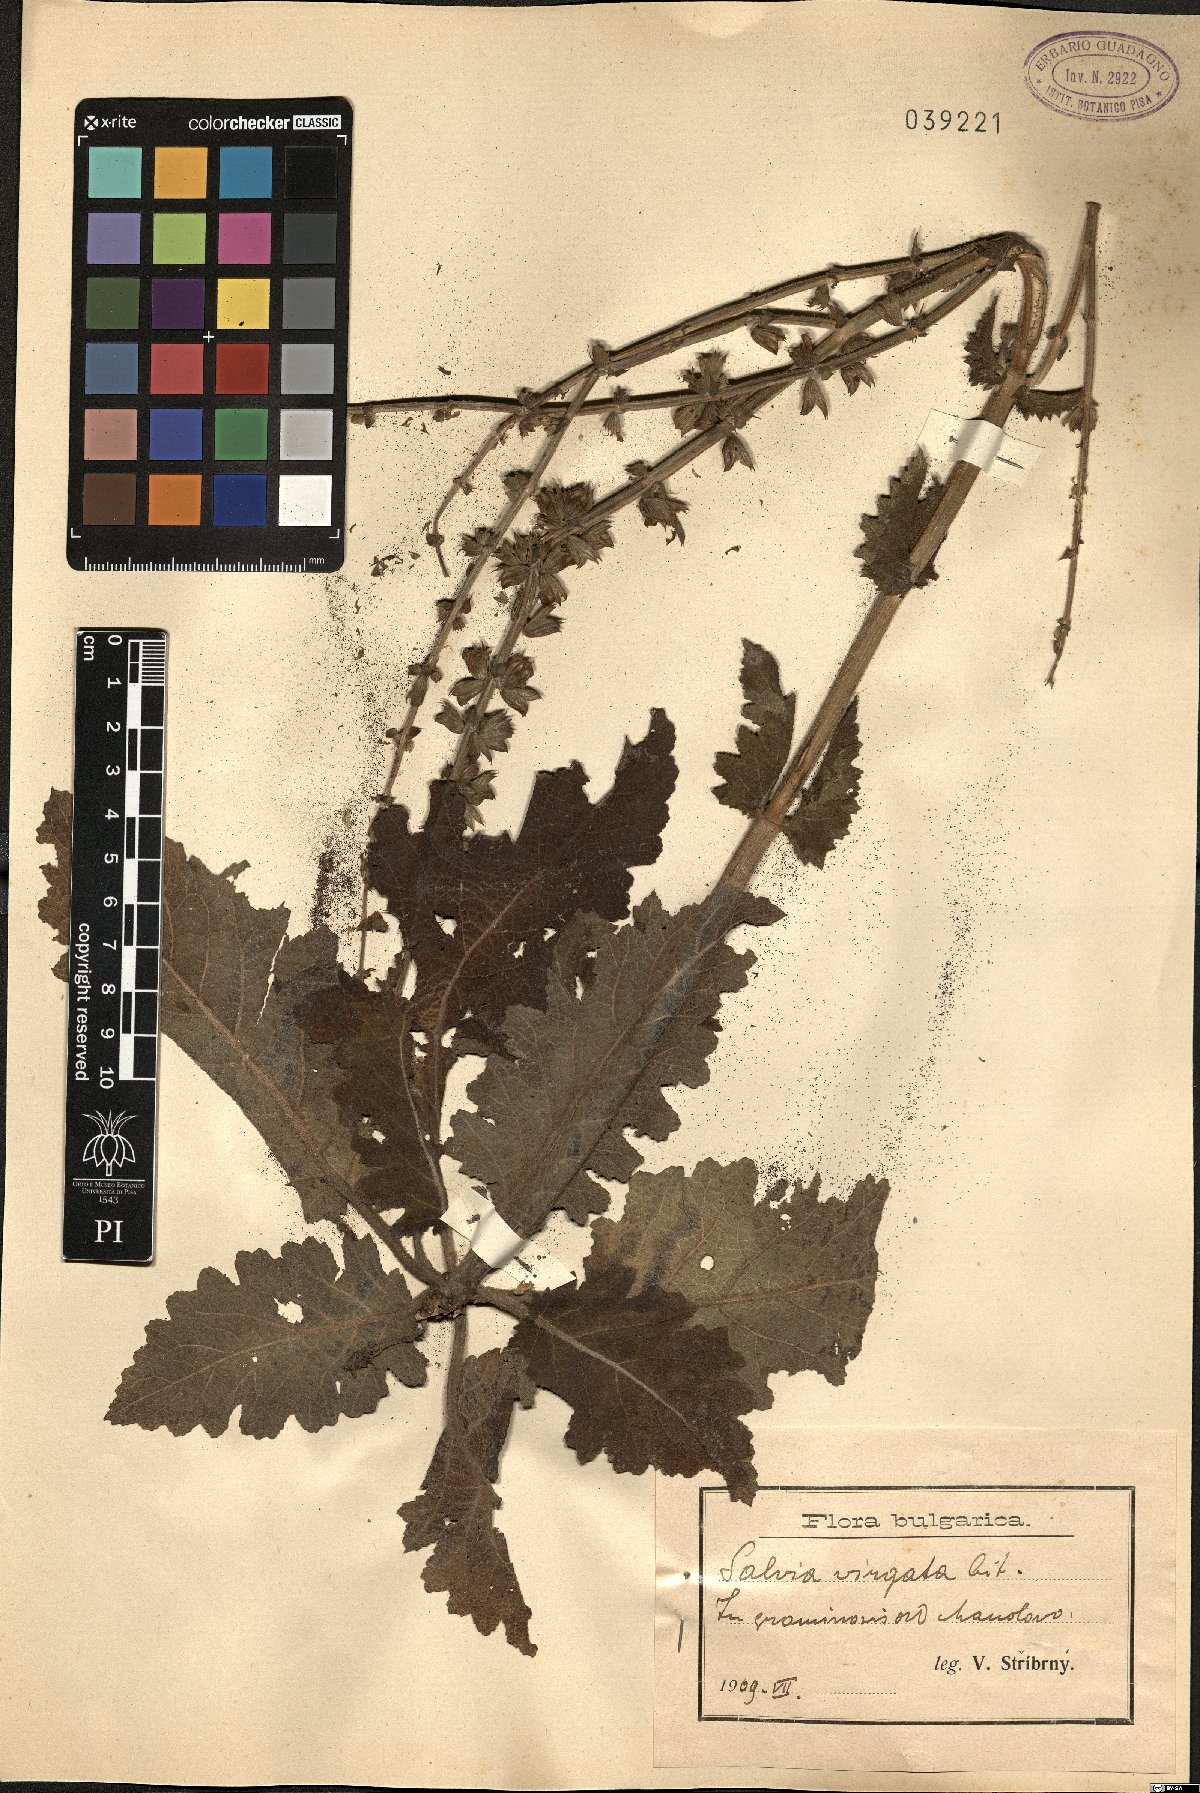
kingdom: Plantae
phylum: Tracheophyta
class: Magnoliopsida
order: Lamiales
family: Lamiaceae
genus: Salvia
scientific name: Salvia virgata
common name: Wand sage
